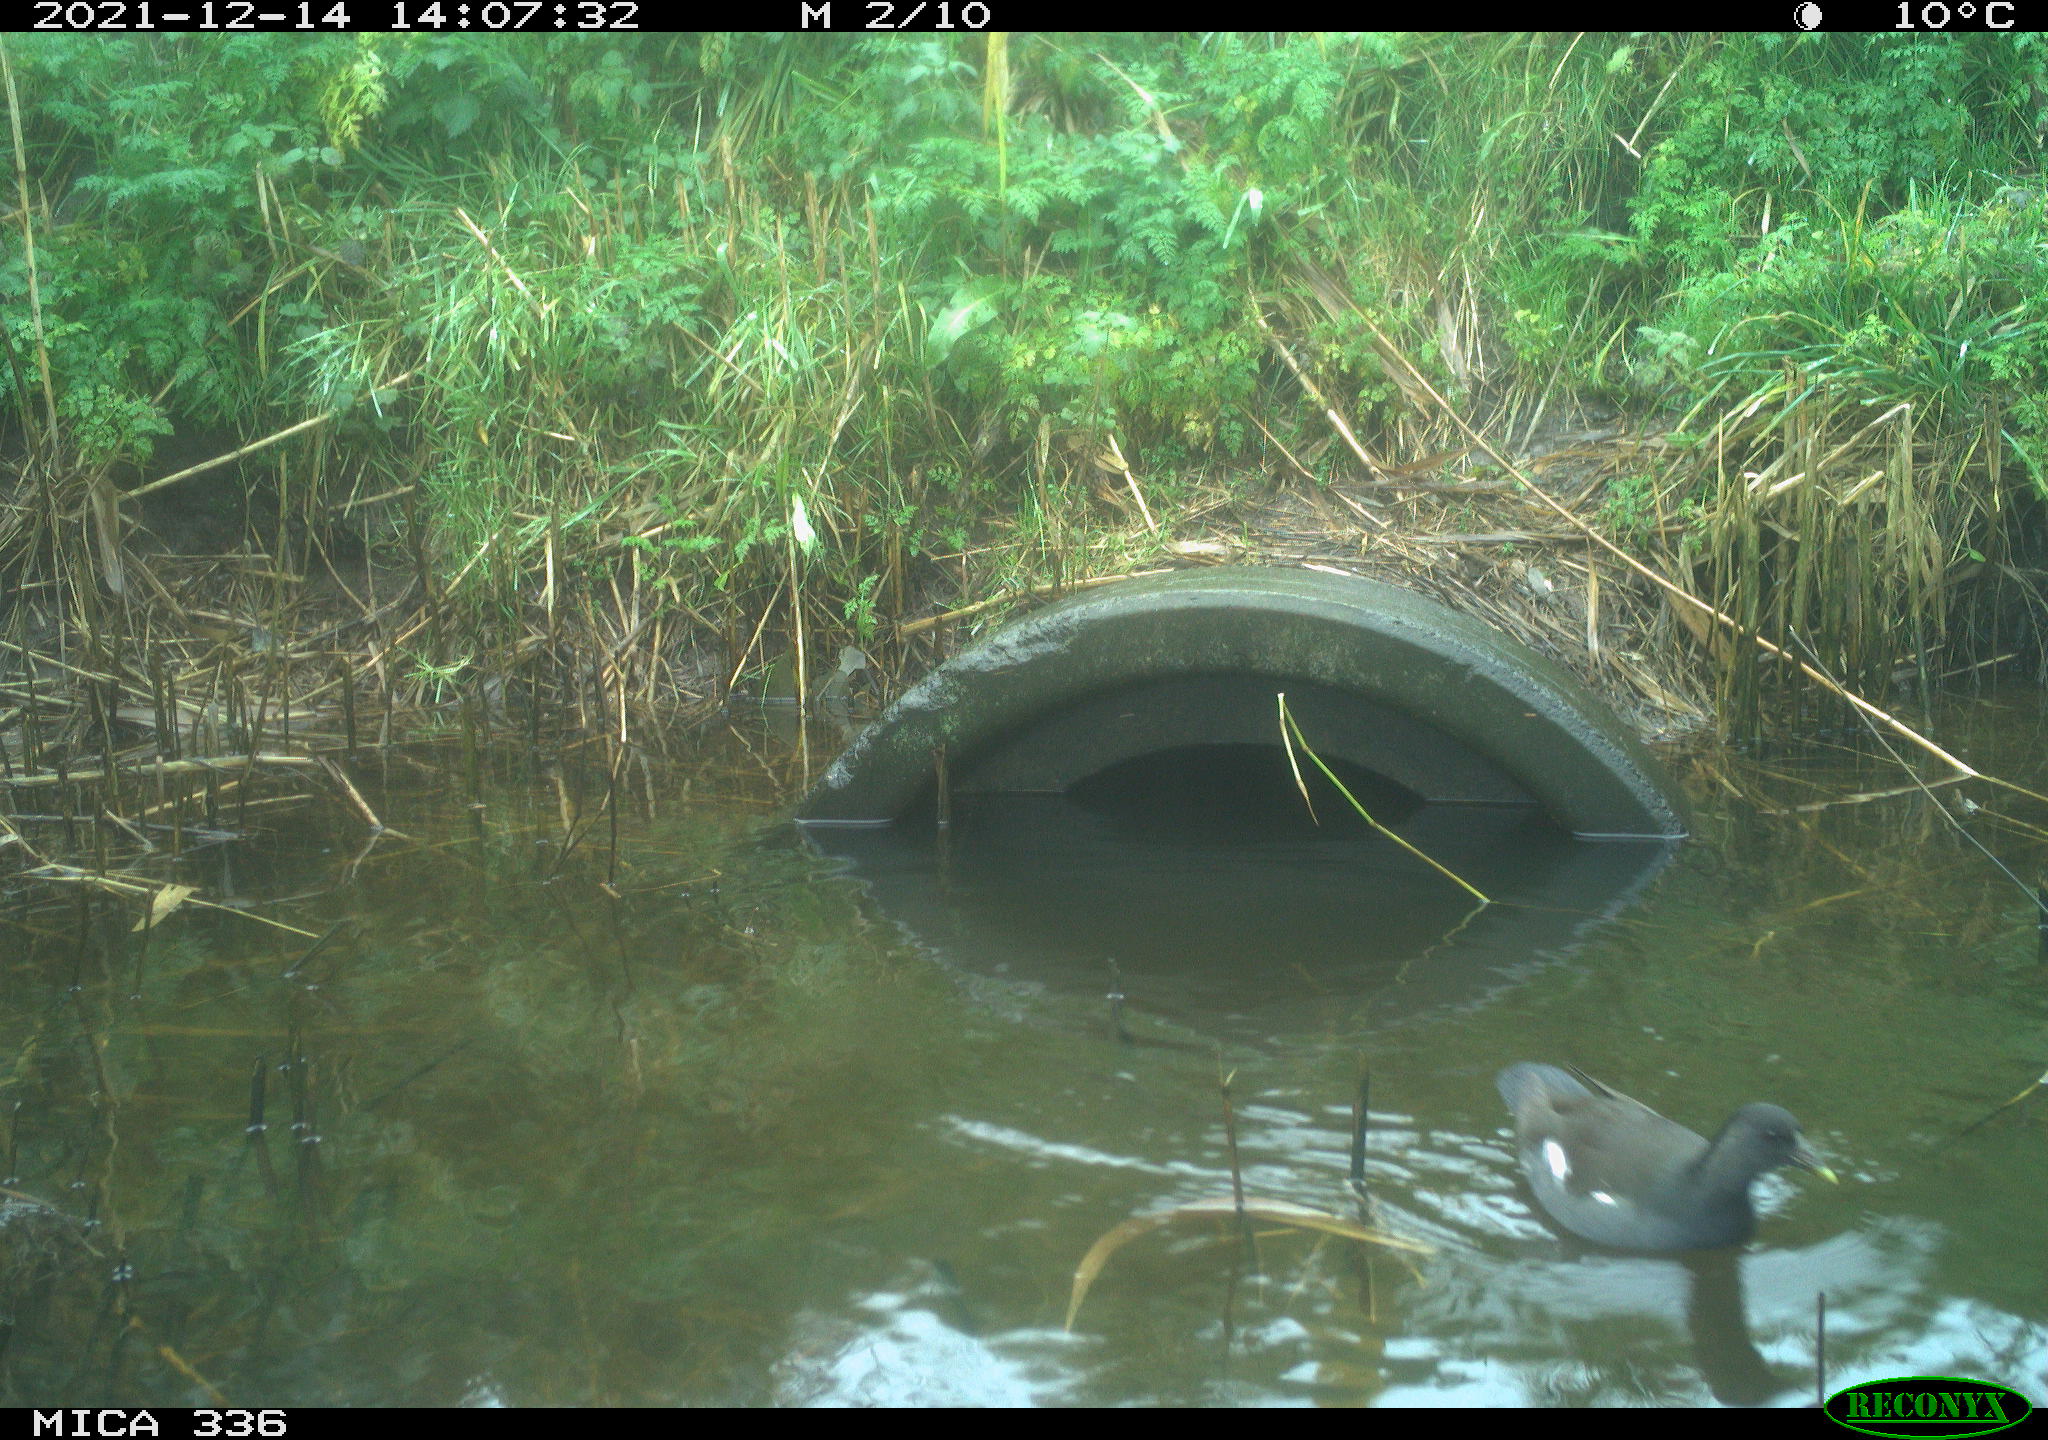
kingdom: Animalia
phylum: Chordata
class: Aves
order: Gruiformes
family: Rallidae
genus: Gallinula
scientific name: Gallinula chloropus
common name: Common moorhen
